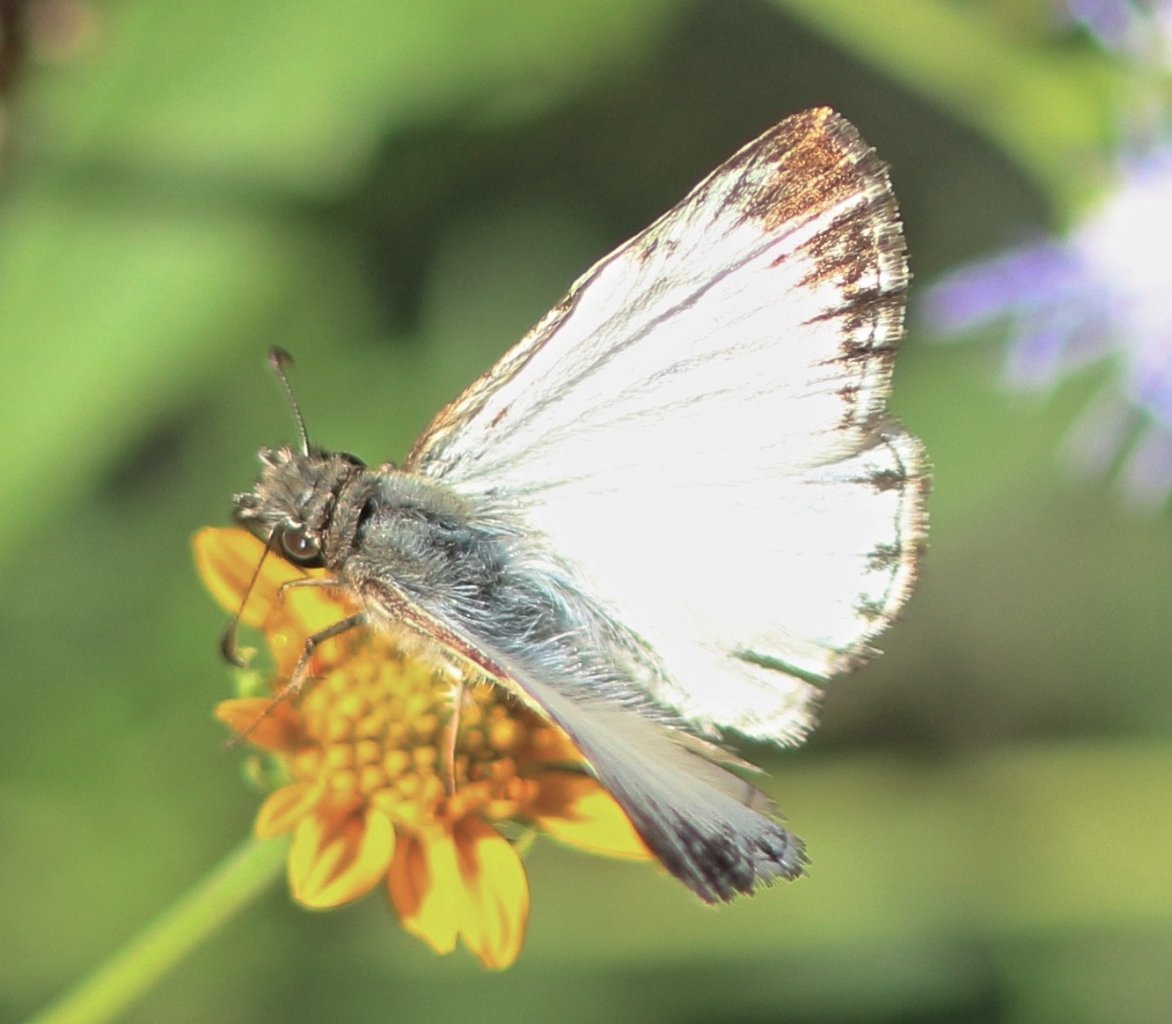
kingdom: Animalia
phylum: Arthropoda
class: Insecta
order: Lepidoptera
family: Hesperiidae
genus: Heliopetes
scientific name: Heliopetes macaira
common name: Turk's-cap White-Skipper
